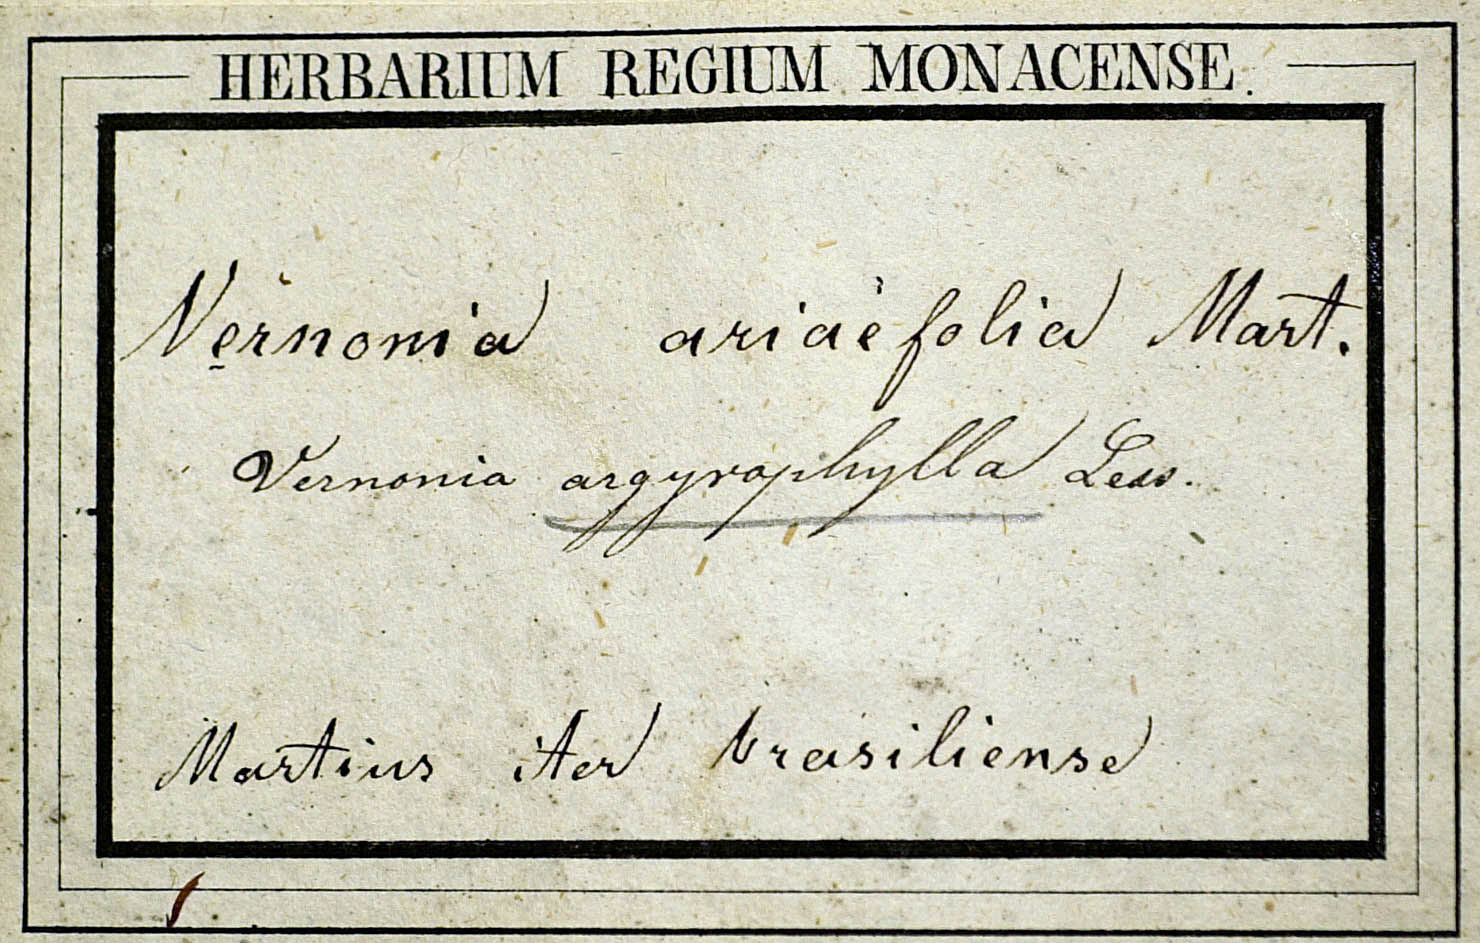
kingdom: Plantae
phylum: Tracheophyta
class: Magnoliopsida
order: Asterales
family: Asteraceae
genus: Lessingianthus
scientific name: Lessingianthus argyrophyllus
